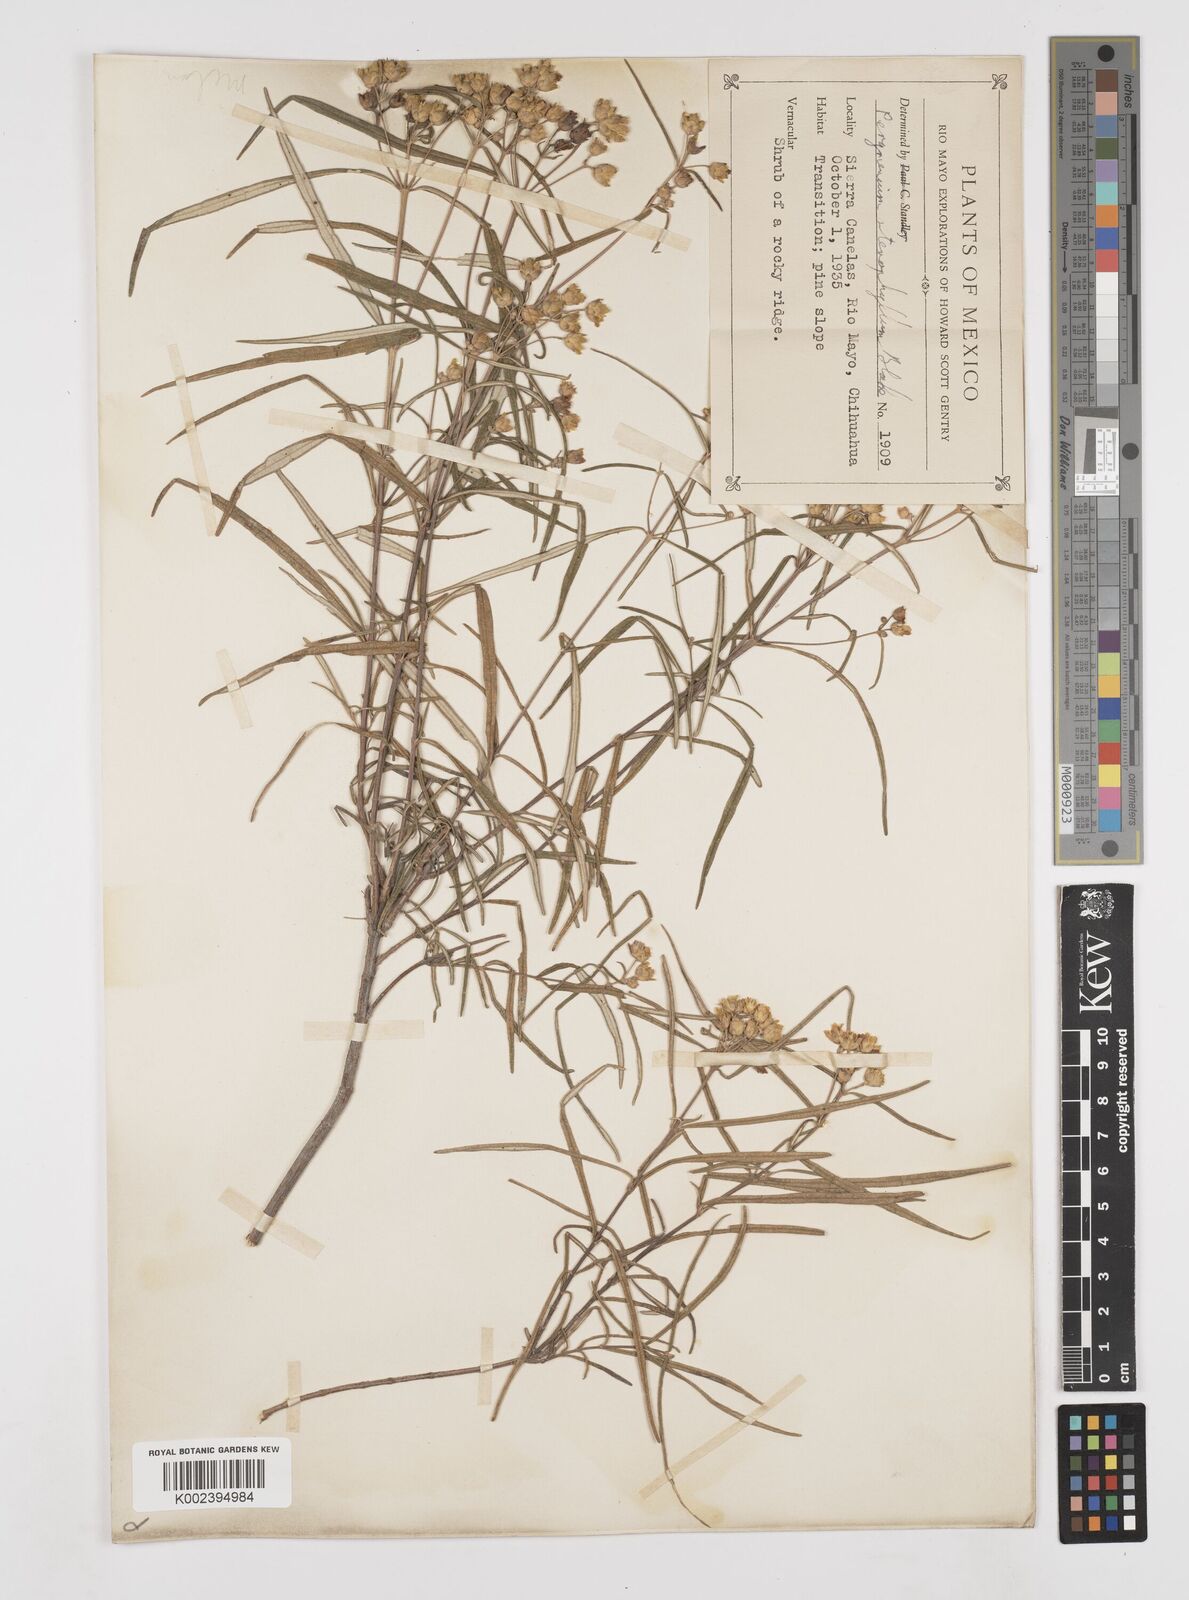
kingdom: Plantae
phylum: Tracheophyta
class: Magnoliopsida
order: Asterales
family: Asteraceae
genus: Perymenium
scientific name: Perymenium stenophyllum
